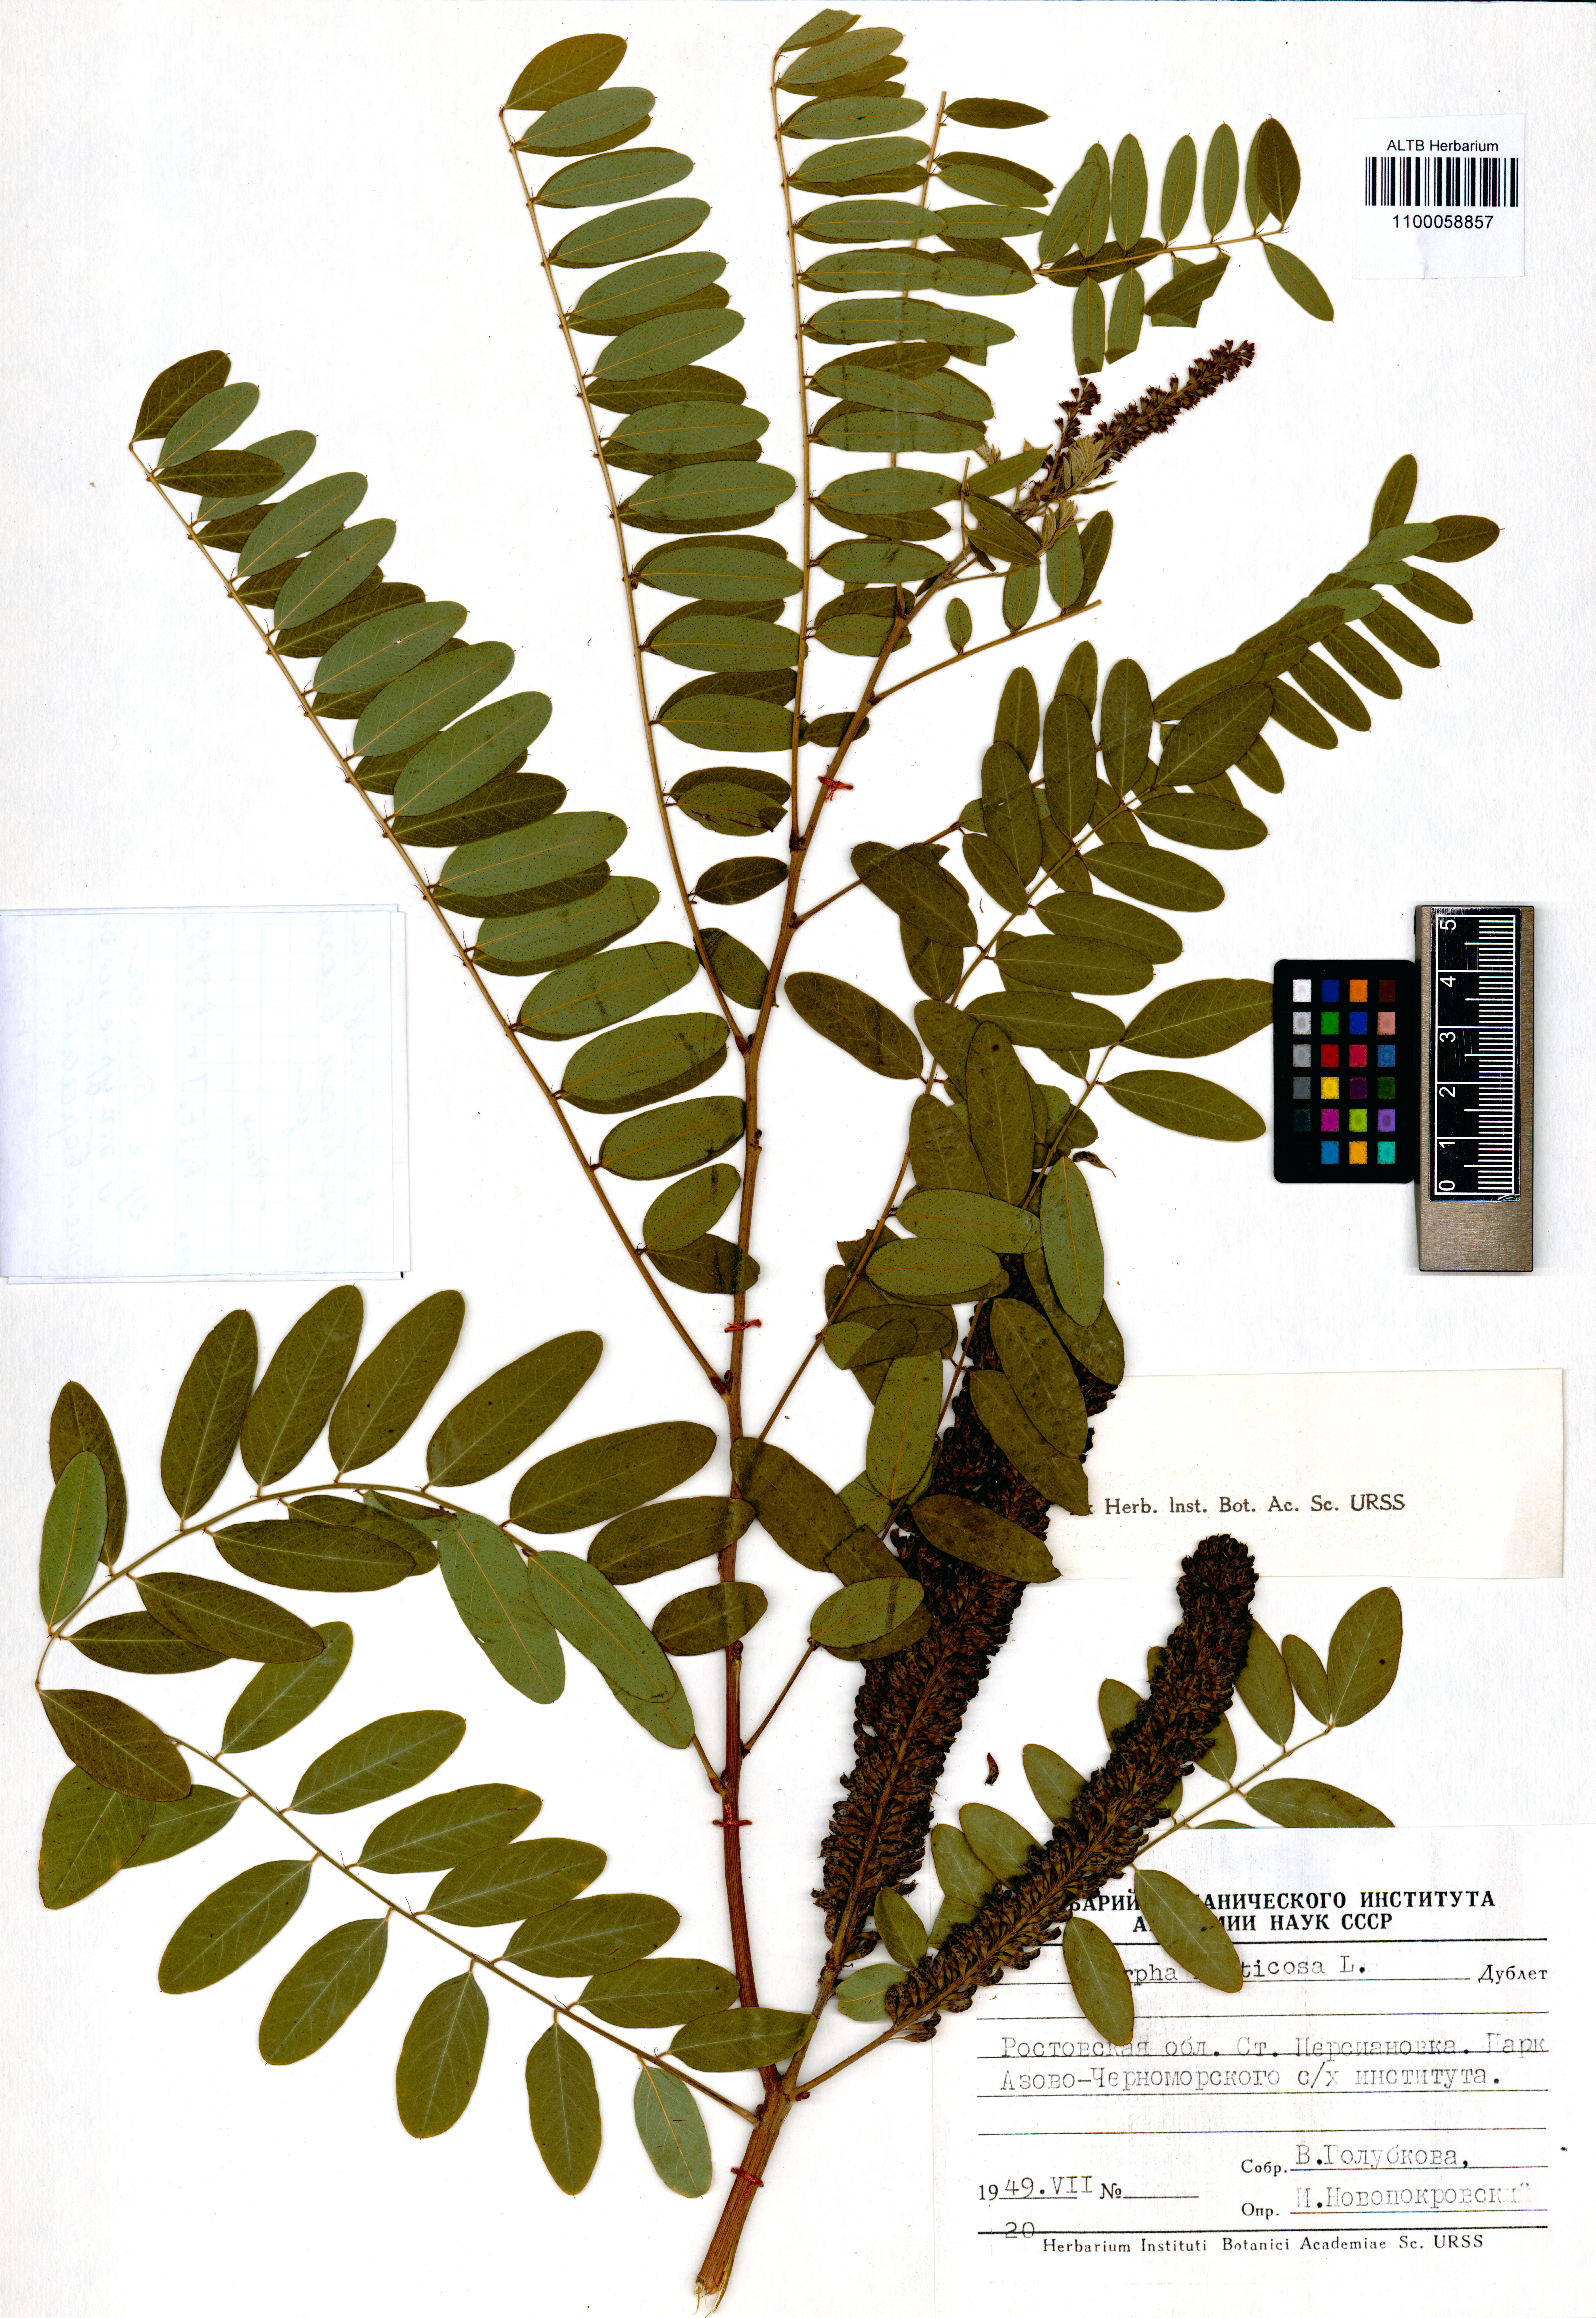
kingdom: Plantae
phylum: Tracheophyta
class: Magnoliopsida
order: Fabales
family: Fabaceae
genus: Amorpha
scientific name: Amorpha fruticosa
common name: False indigo
